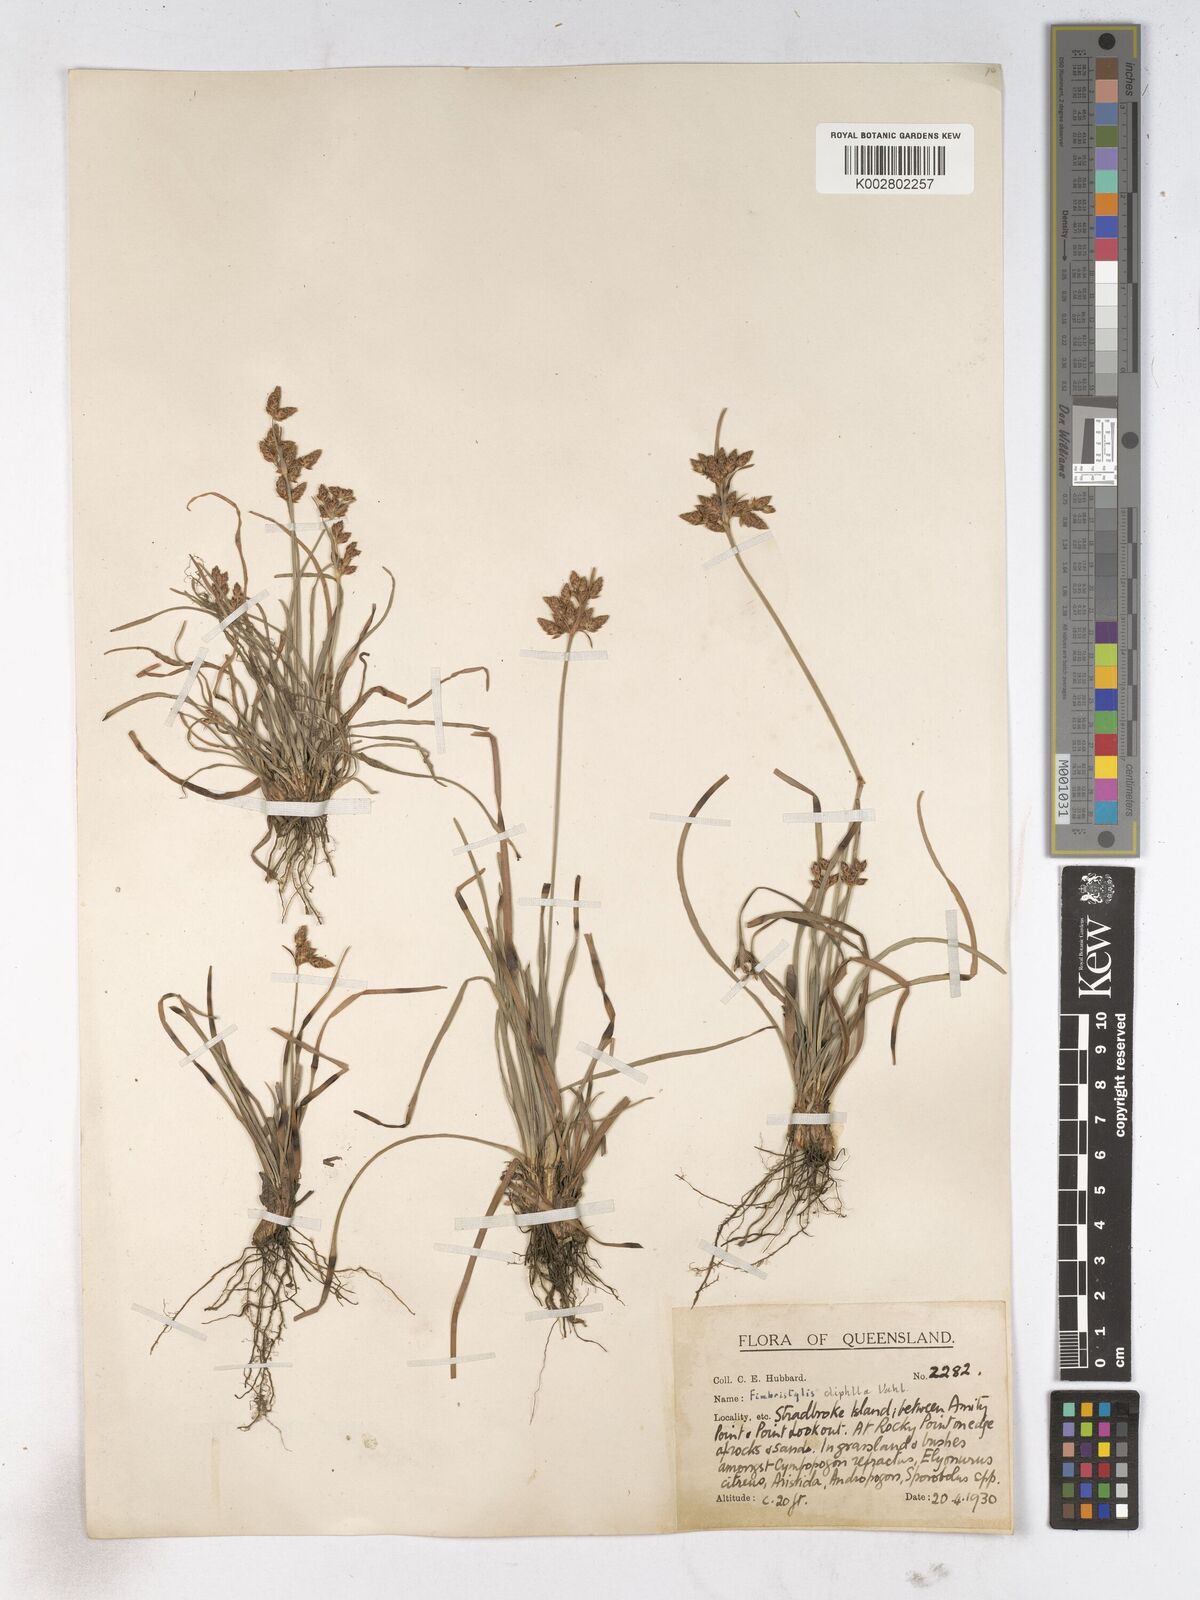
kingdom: Plantae
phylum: Tracheophyta
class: Liliopsida
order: Poales
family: Cyperaceae
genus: Fimbristylis
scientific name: Fimbristylis dichotoma
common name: Forked fimbry
